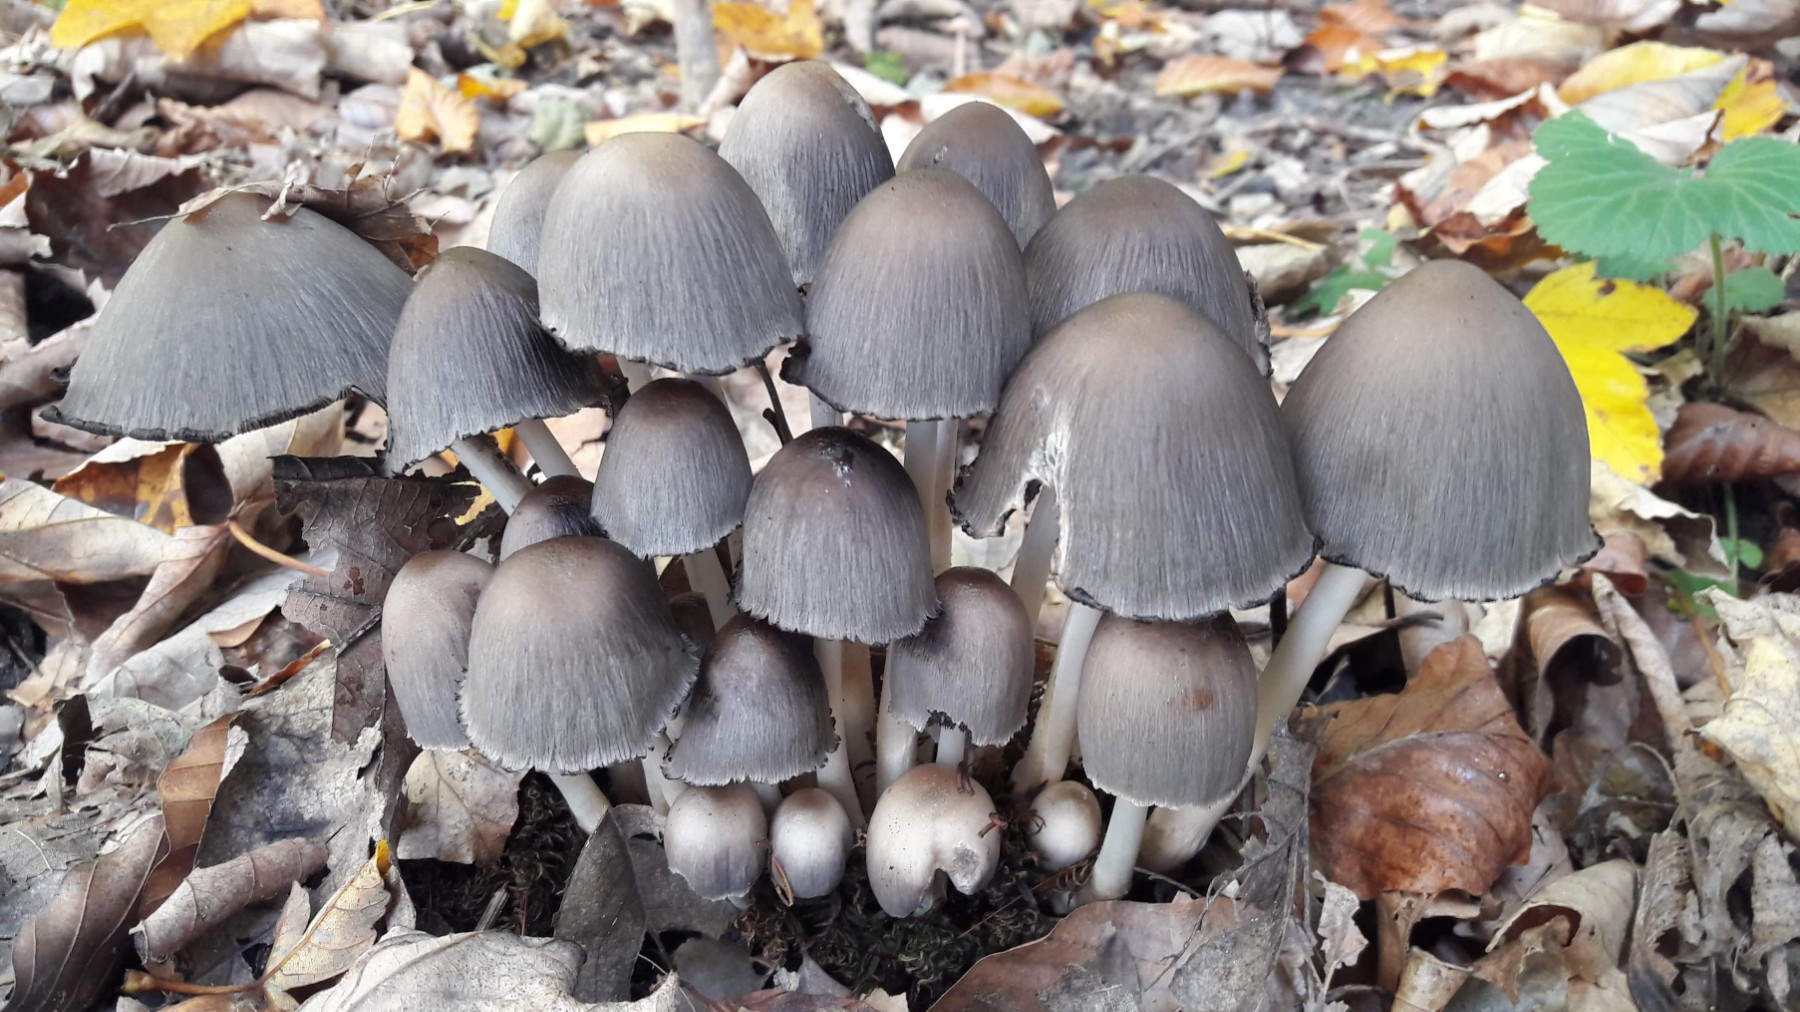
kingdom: Fungi
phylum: Basidiomycota
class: Agaricomycetes
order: Agaricales
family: Psathyrellaceae
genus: Coprinopsis
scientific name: Coprinopsis atramentaria
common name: almindelig blækhat
